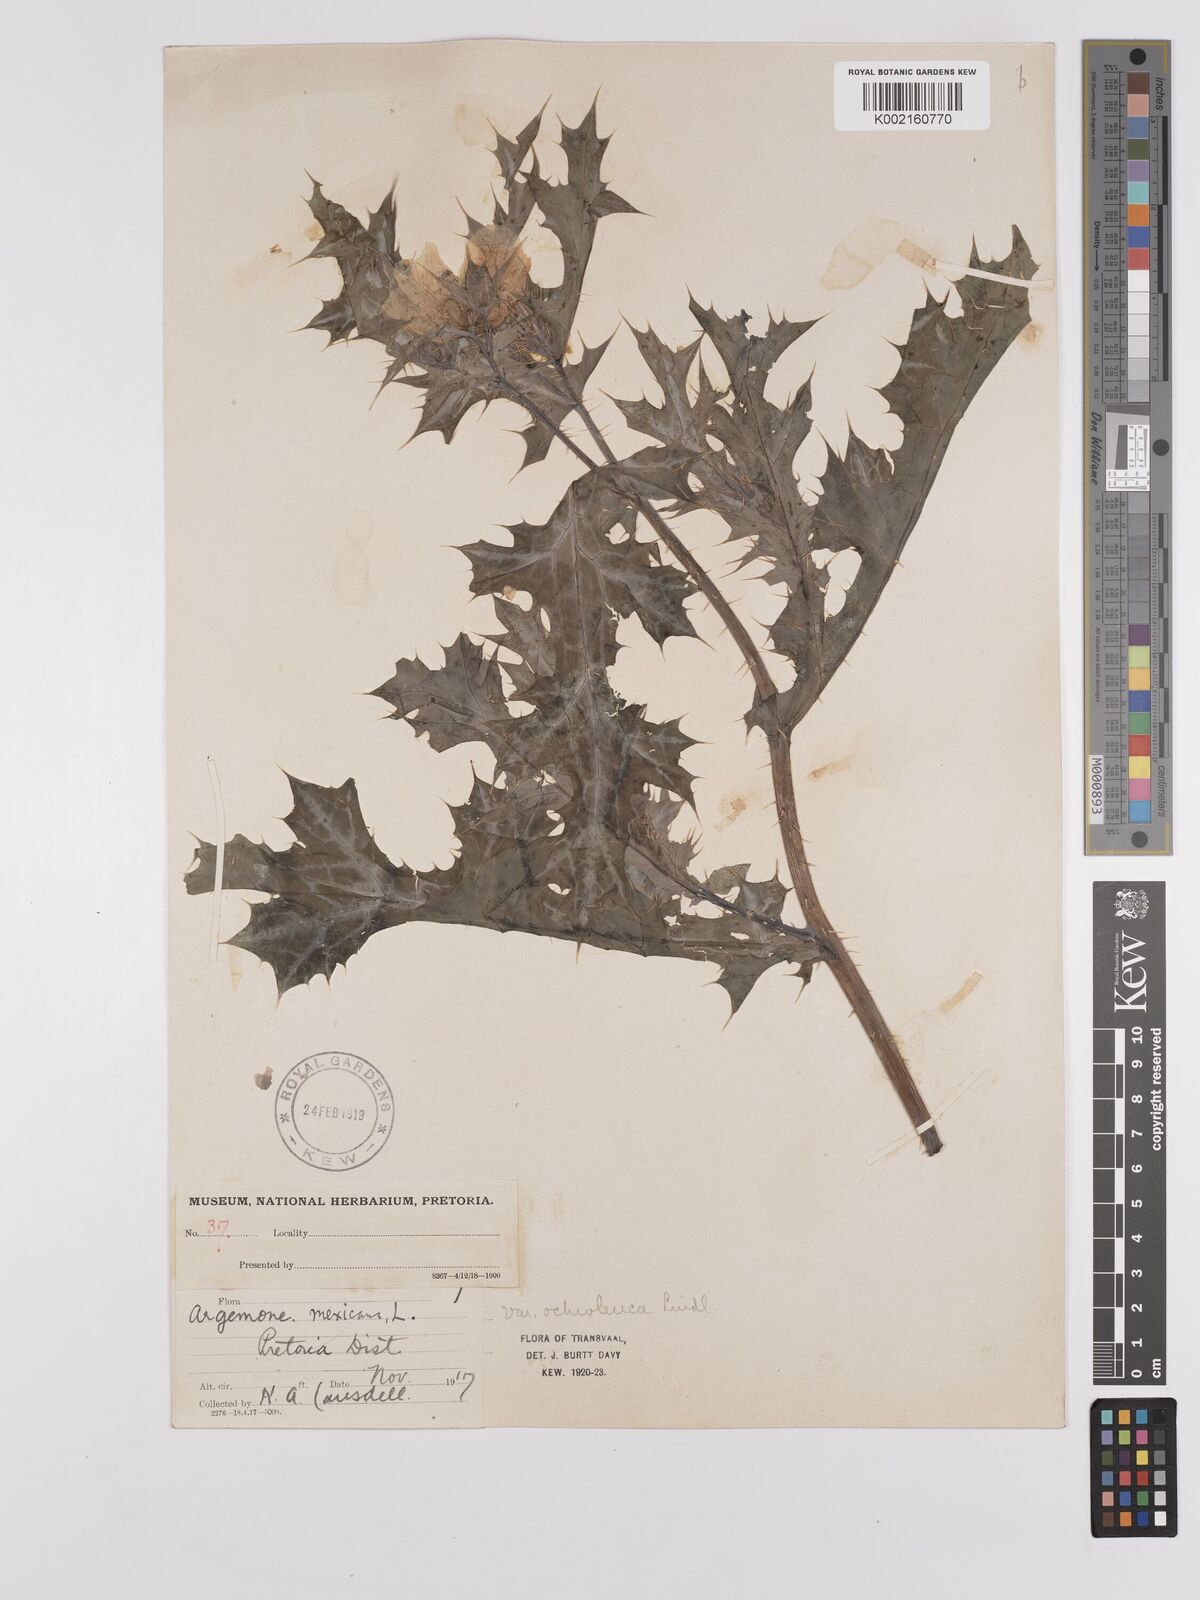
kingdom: Plantae
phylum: Tracheophyta
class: Magnoliopsida
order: Ranunculales
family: Papaveraceae
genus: Argemone
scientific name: Argemone mexicana
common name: Mexican poppy
